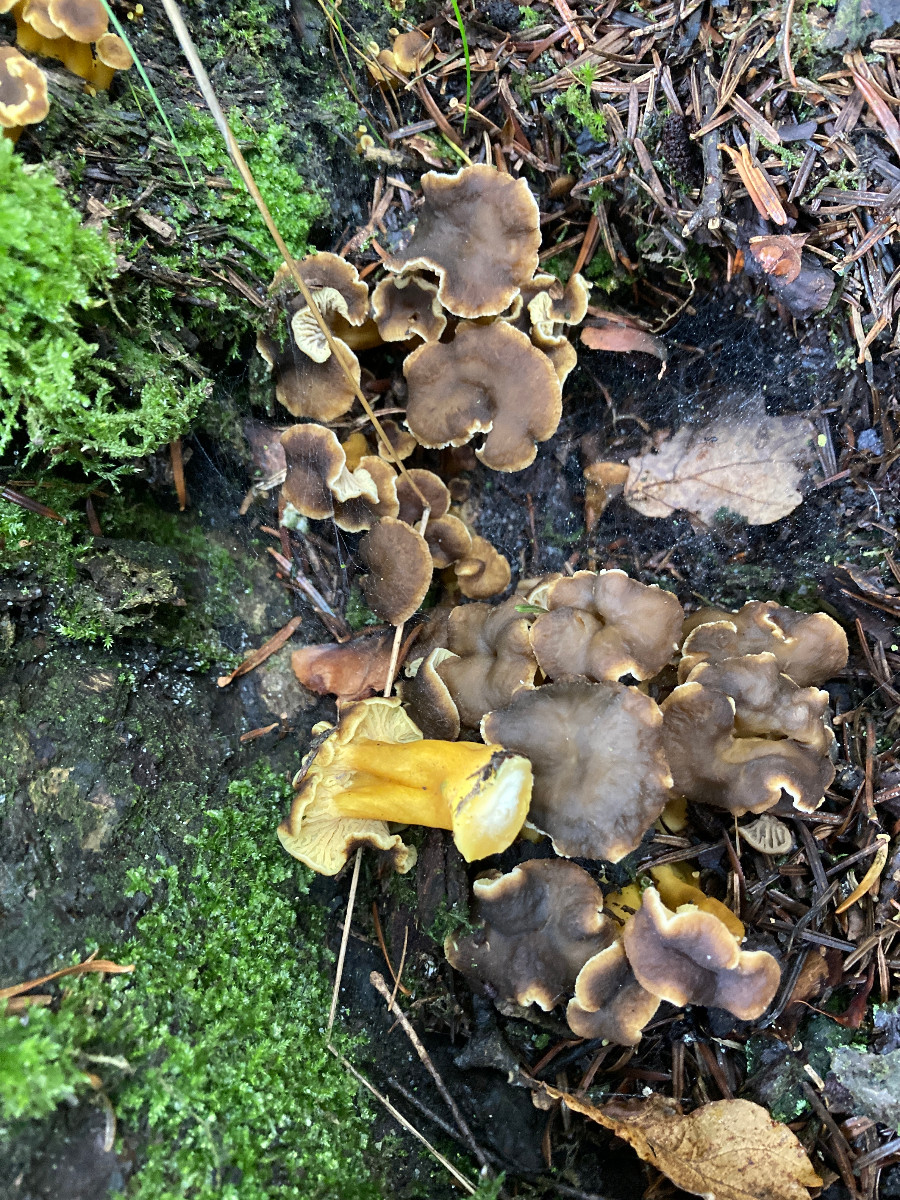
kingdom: Fungi
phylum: Basidiomycota
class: Agaricomycetes
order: Cantharellales
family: Hydnaceae
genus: Craterellus
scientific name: Craterellus tubaeformis
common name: tragt-kantarel
